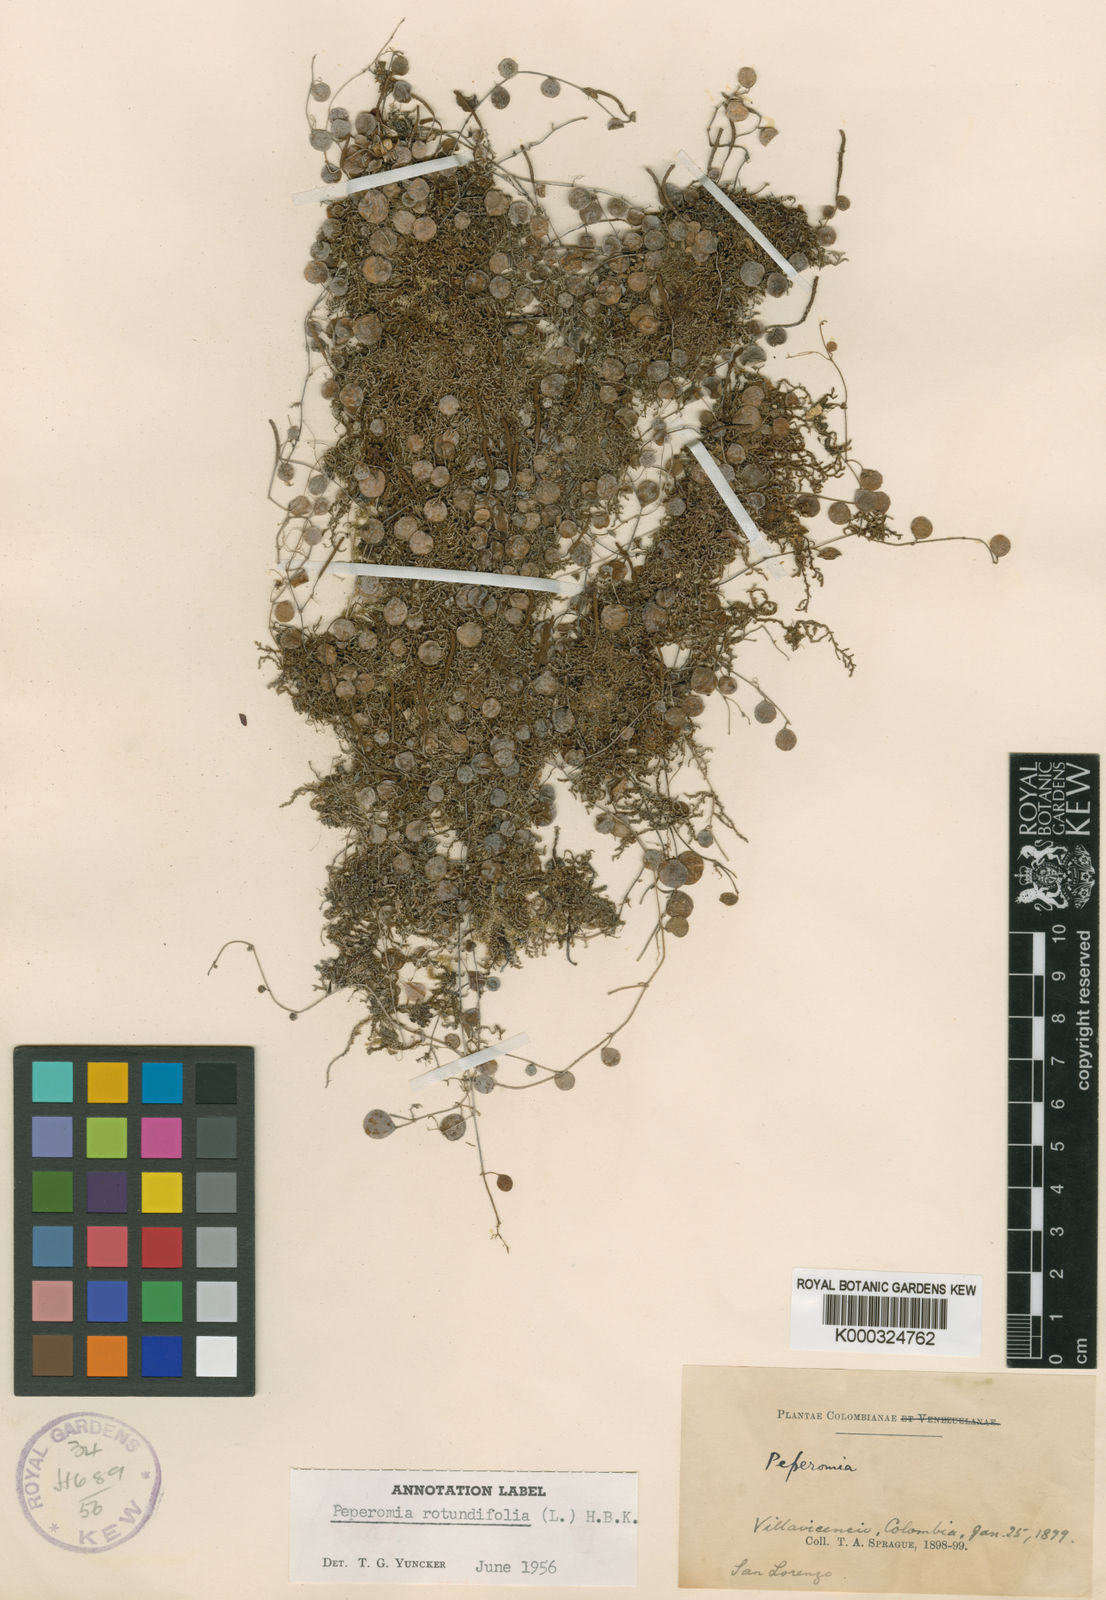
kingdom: Plantae
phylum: Tracheophyta
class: Magnoliopsida
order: Piperales
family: Piperaceae
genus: Peperomia
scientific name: Peperomia rotundifolia
